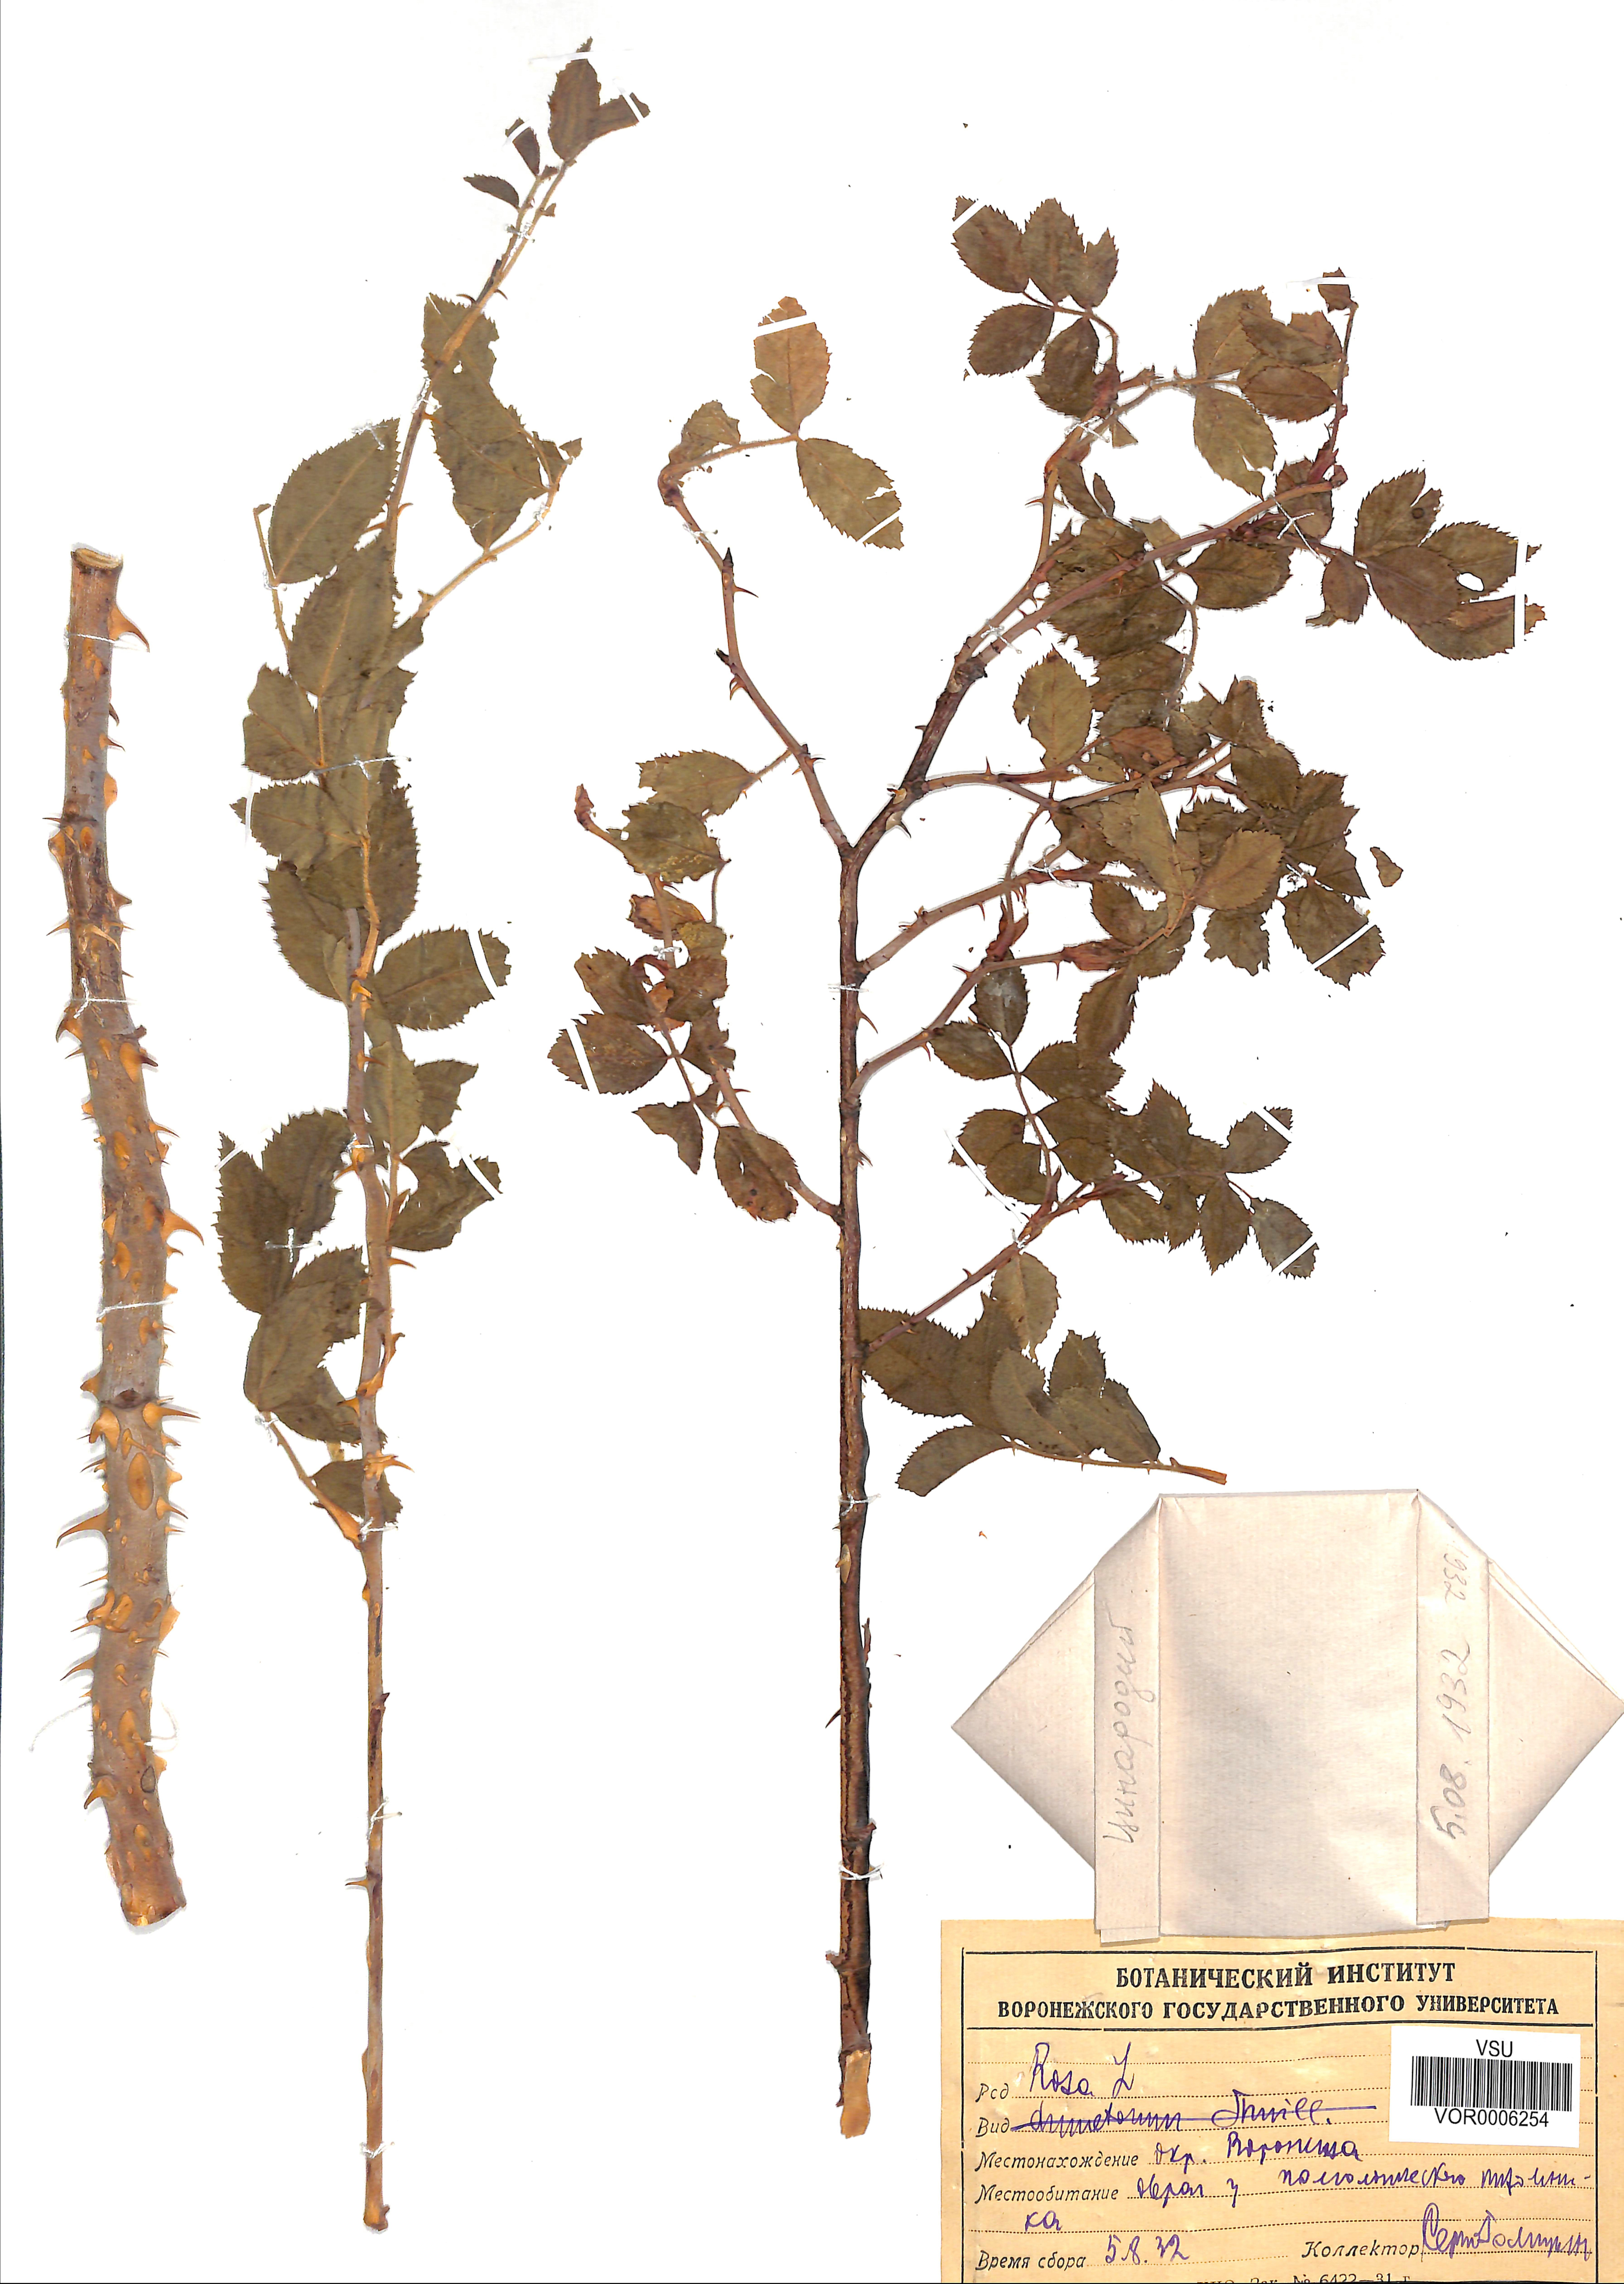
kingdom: Plantae
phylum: Tracheophyta
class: Magnoliopsida
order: Rosales
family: Rosaceae
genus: Rosa
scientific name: Rosa canina
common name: Dog rose
